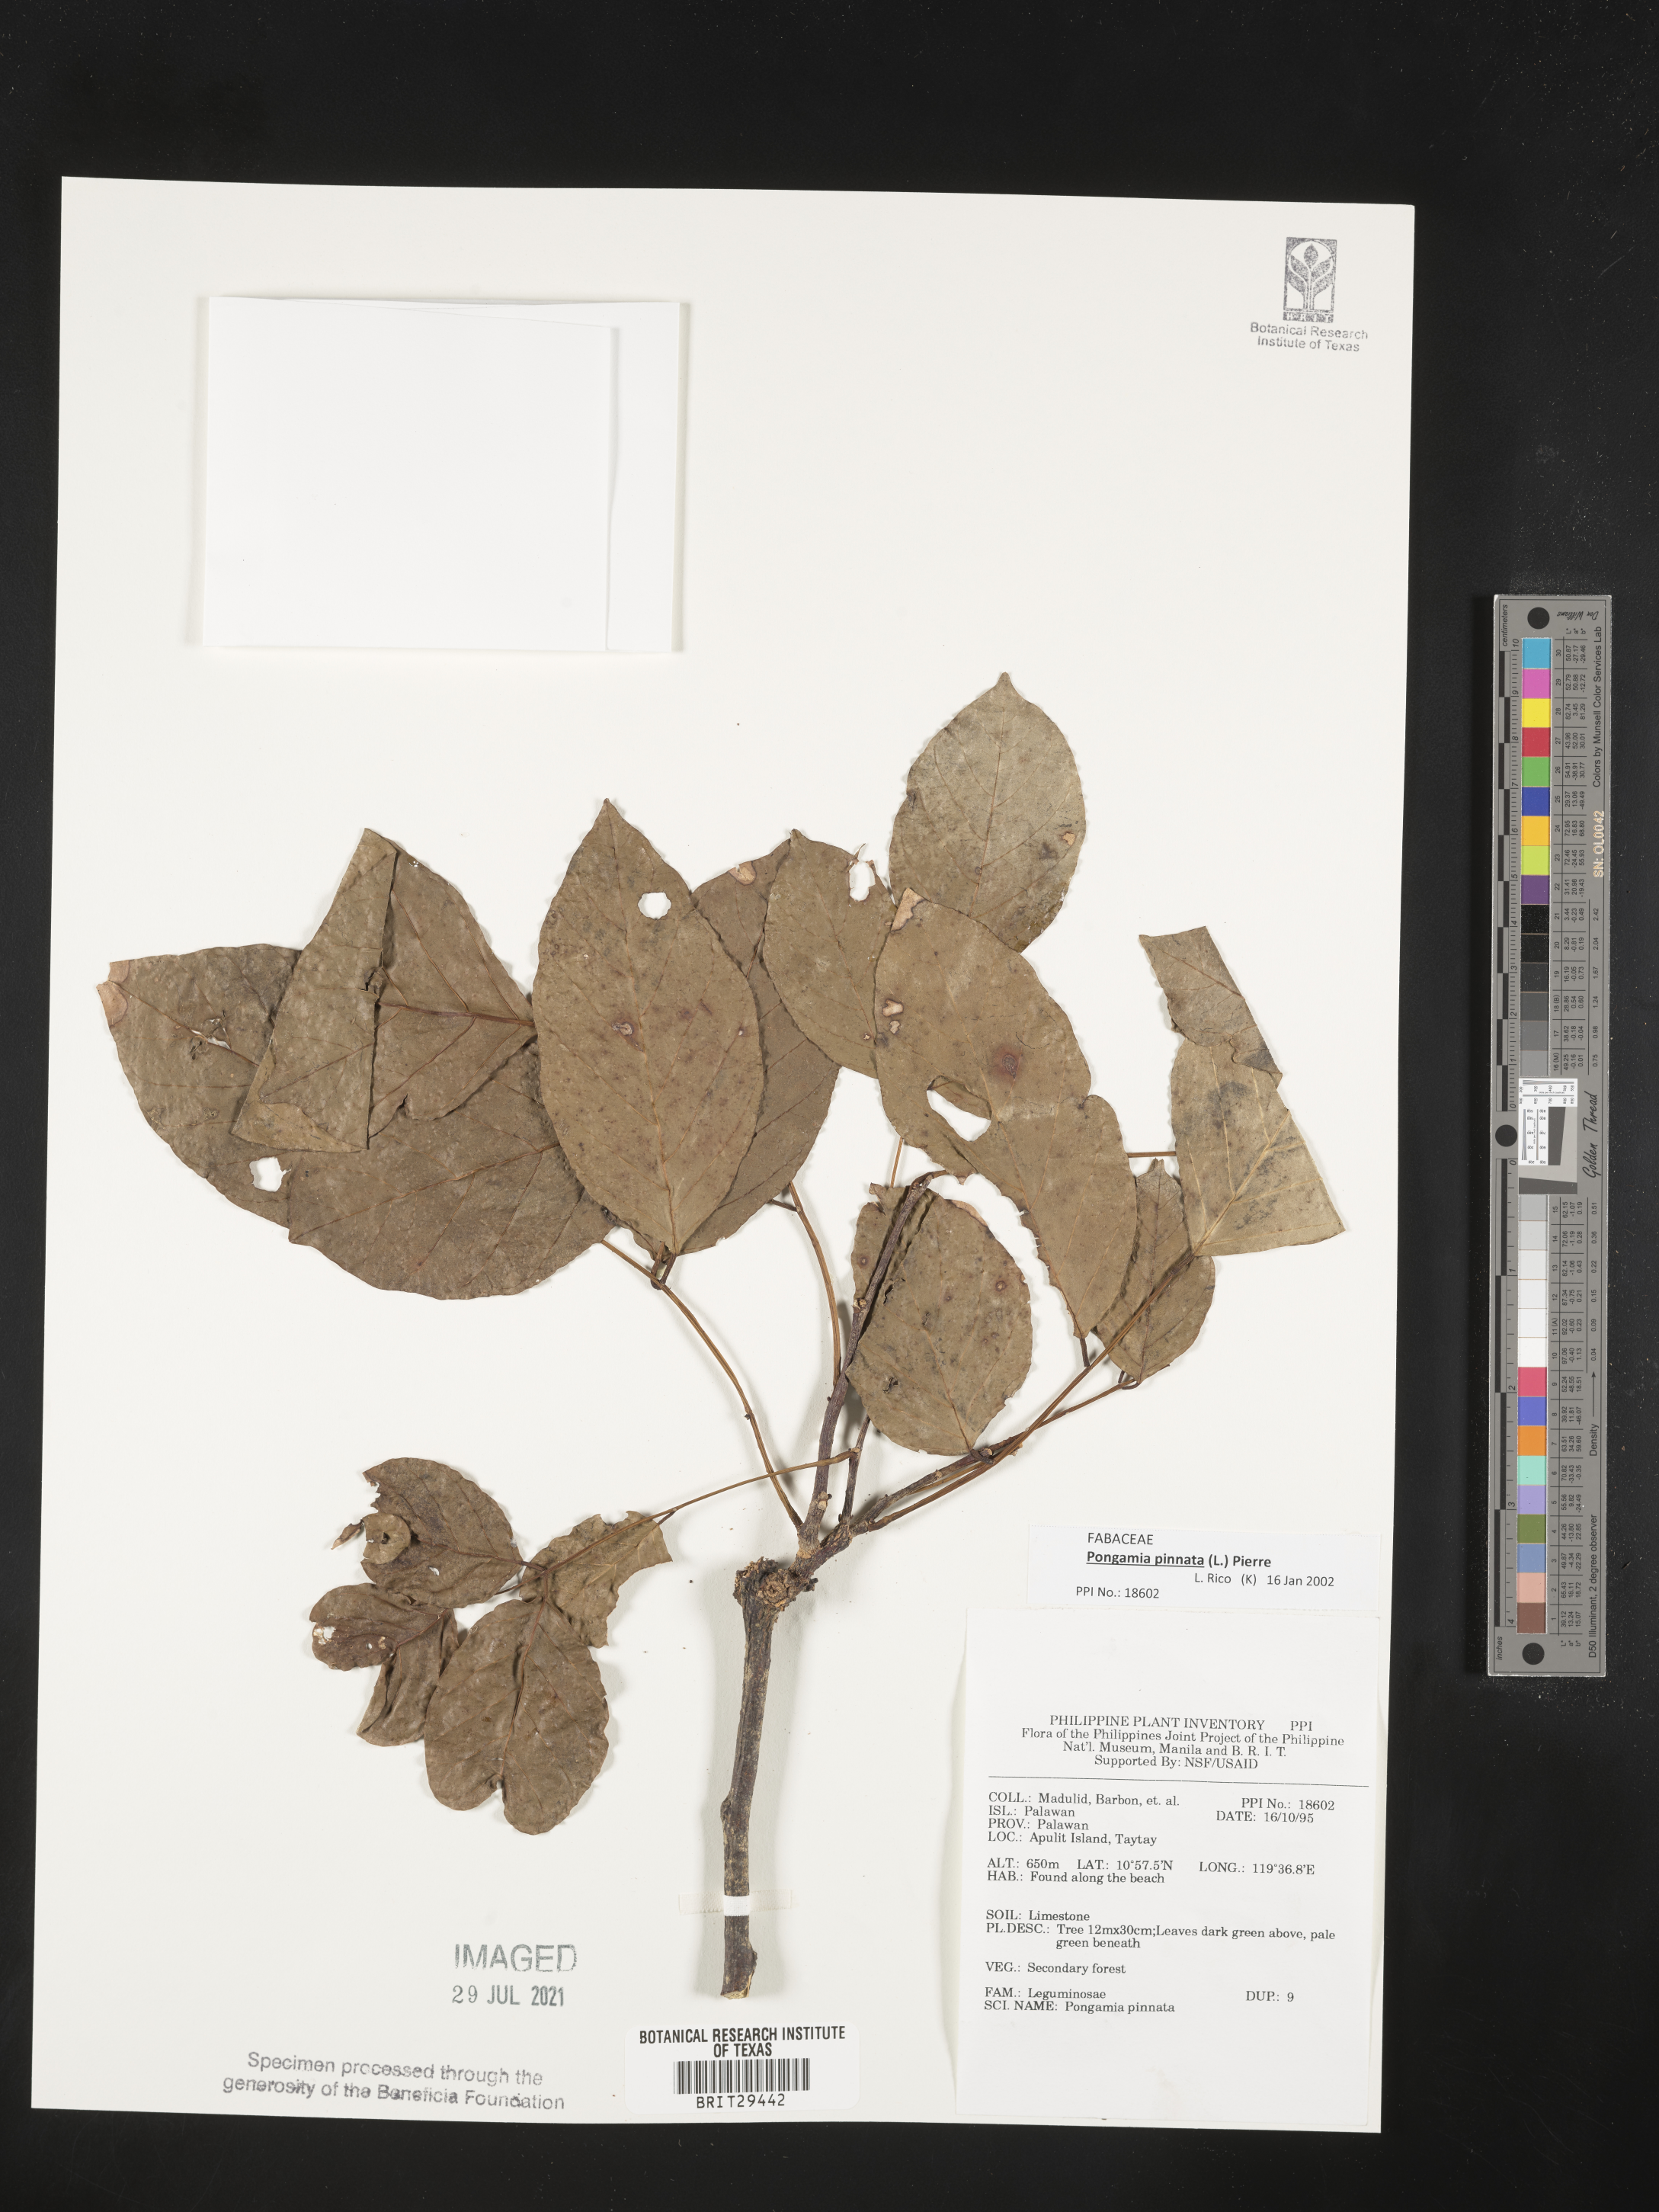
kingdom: Plantae
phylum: Tracheophyta
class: Magnoliopsida
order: Fabales
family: Fabaceae
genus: Pongamia
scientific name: Pongamia pinnata
